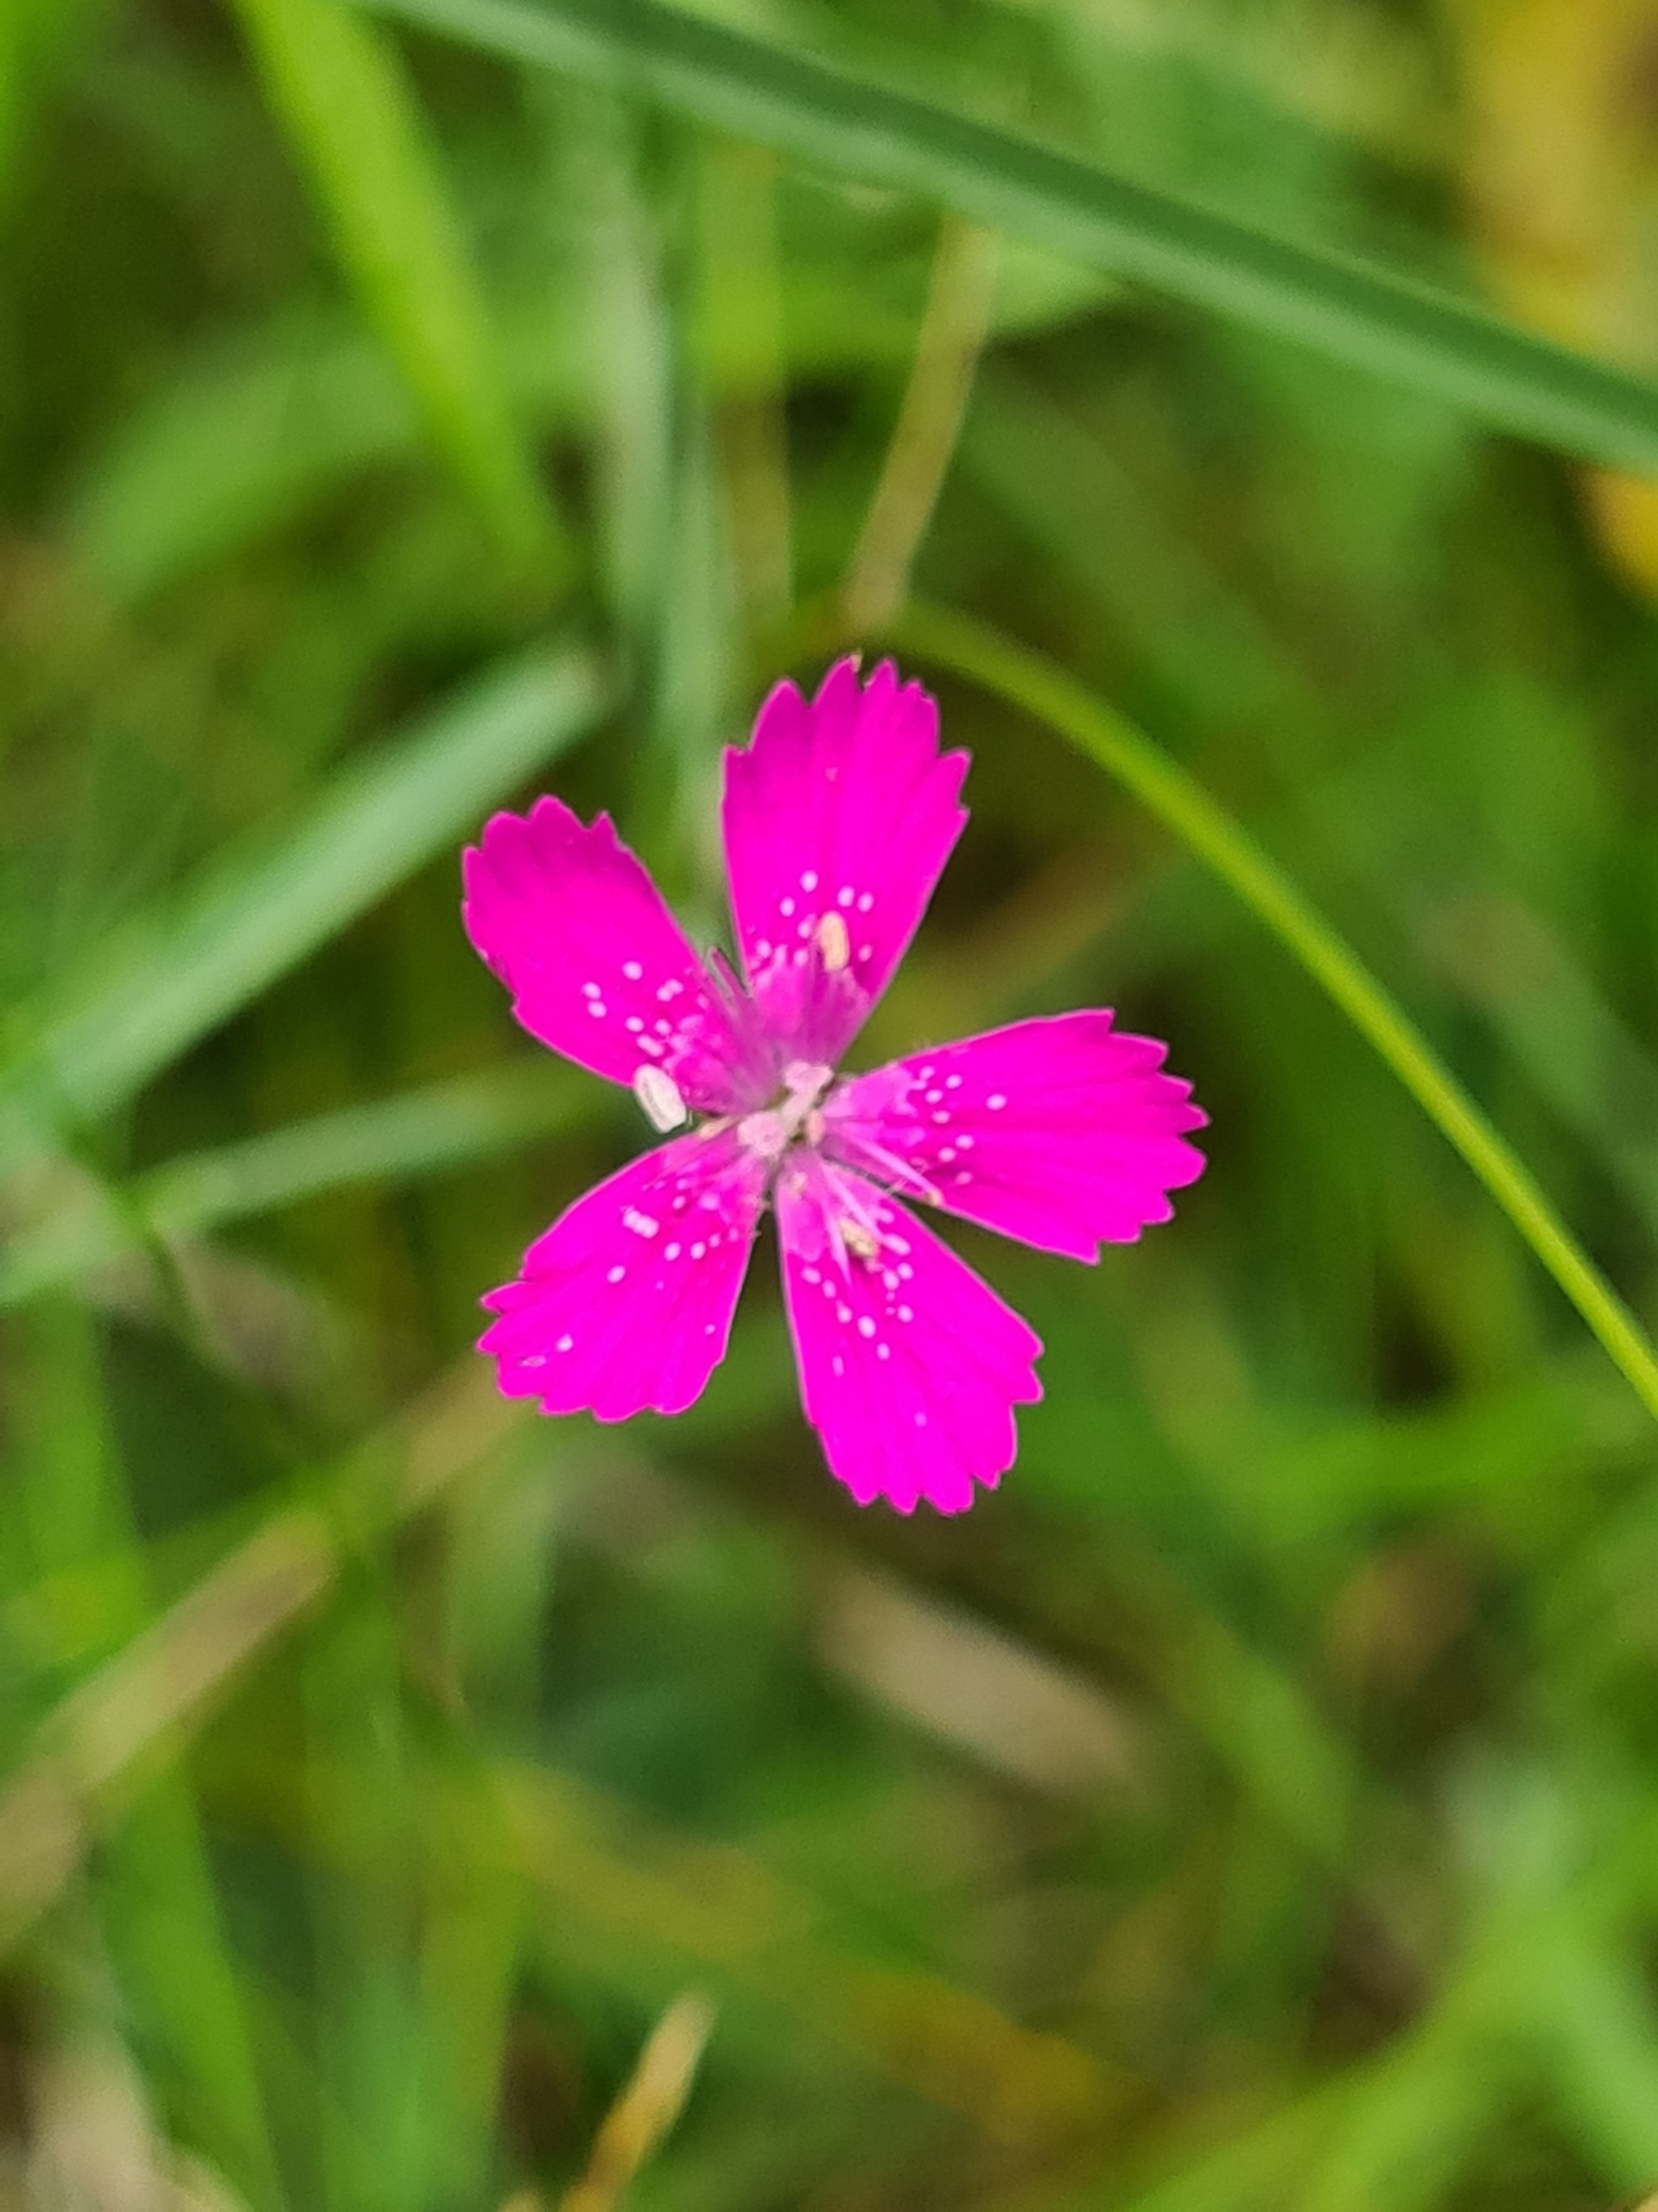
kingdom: Plantae
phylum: Tracheophyta
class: Magnoliopsida
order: Caryophyllales
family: Caryophyllaceae
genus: Dianthus
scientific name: Dianthus deltoides
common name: Bakke-nellike
